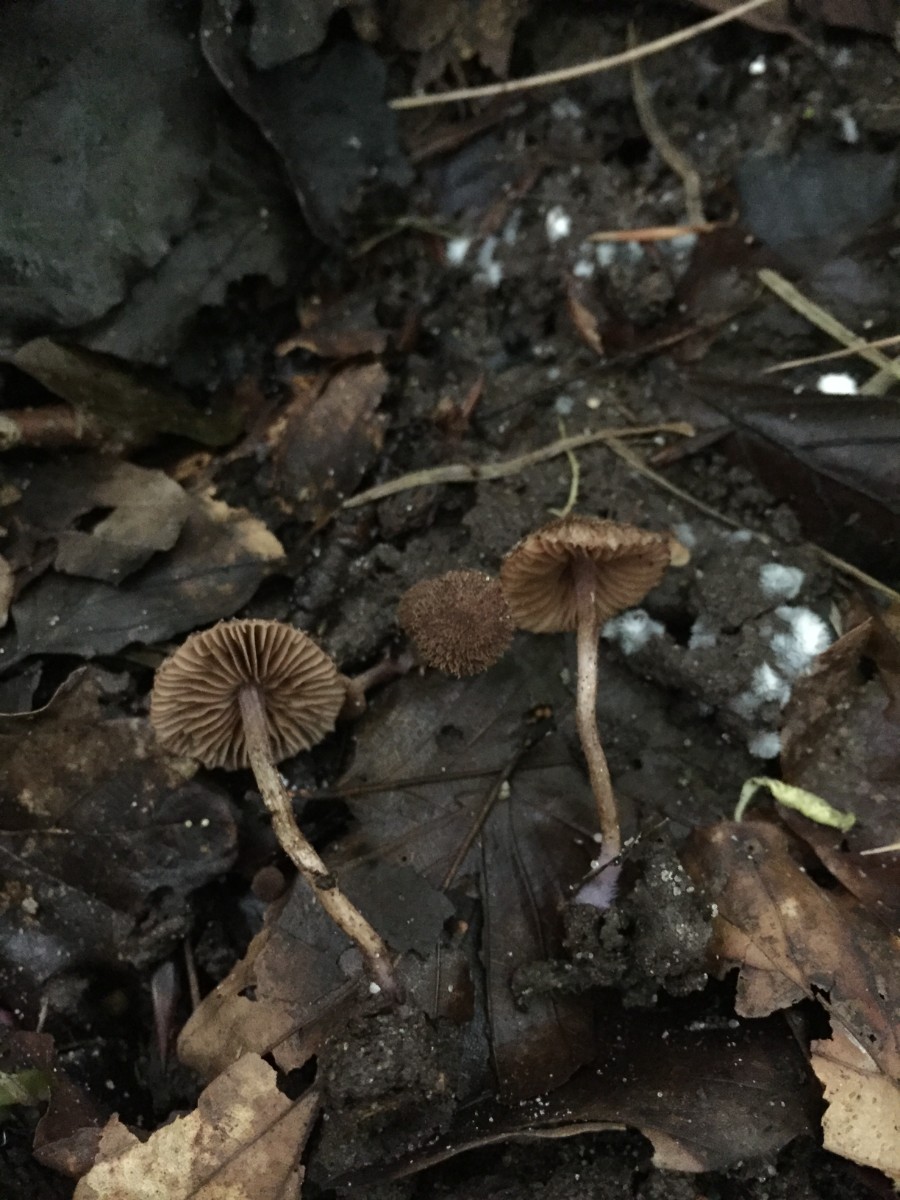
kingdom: Fungi
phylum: Basidiomycota
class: Agaricomycetes
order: Agaricales
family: Inocybaceae
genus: Inocybe
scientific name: Inocybe gracillima
